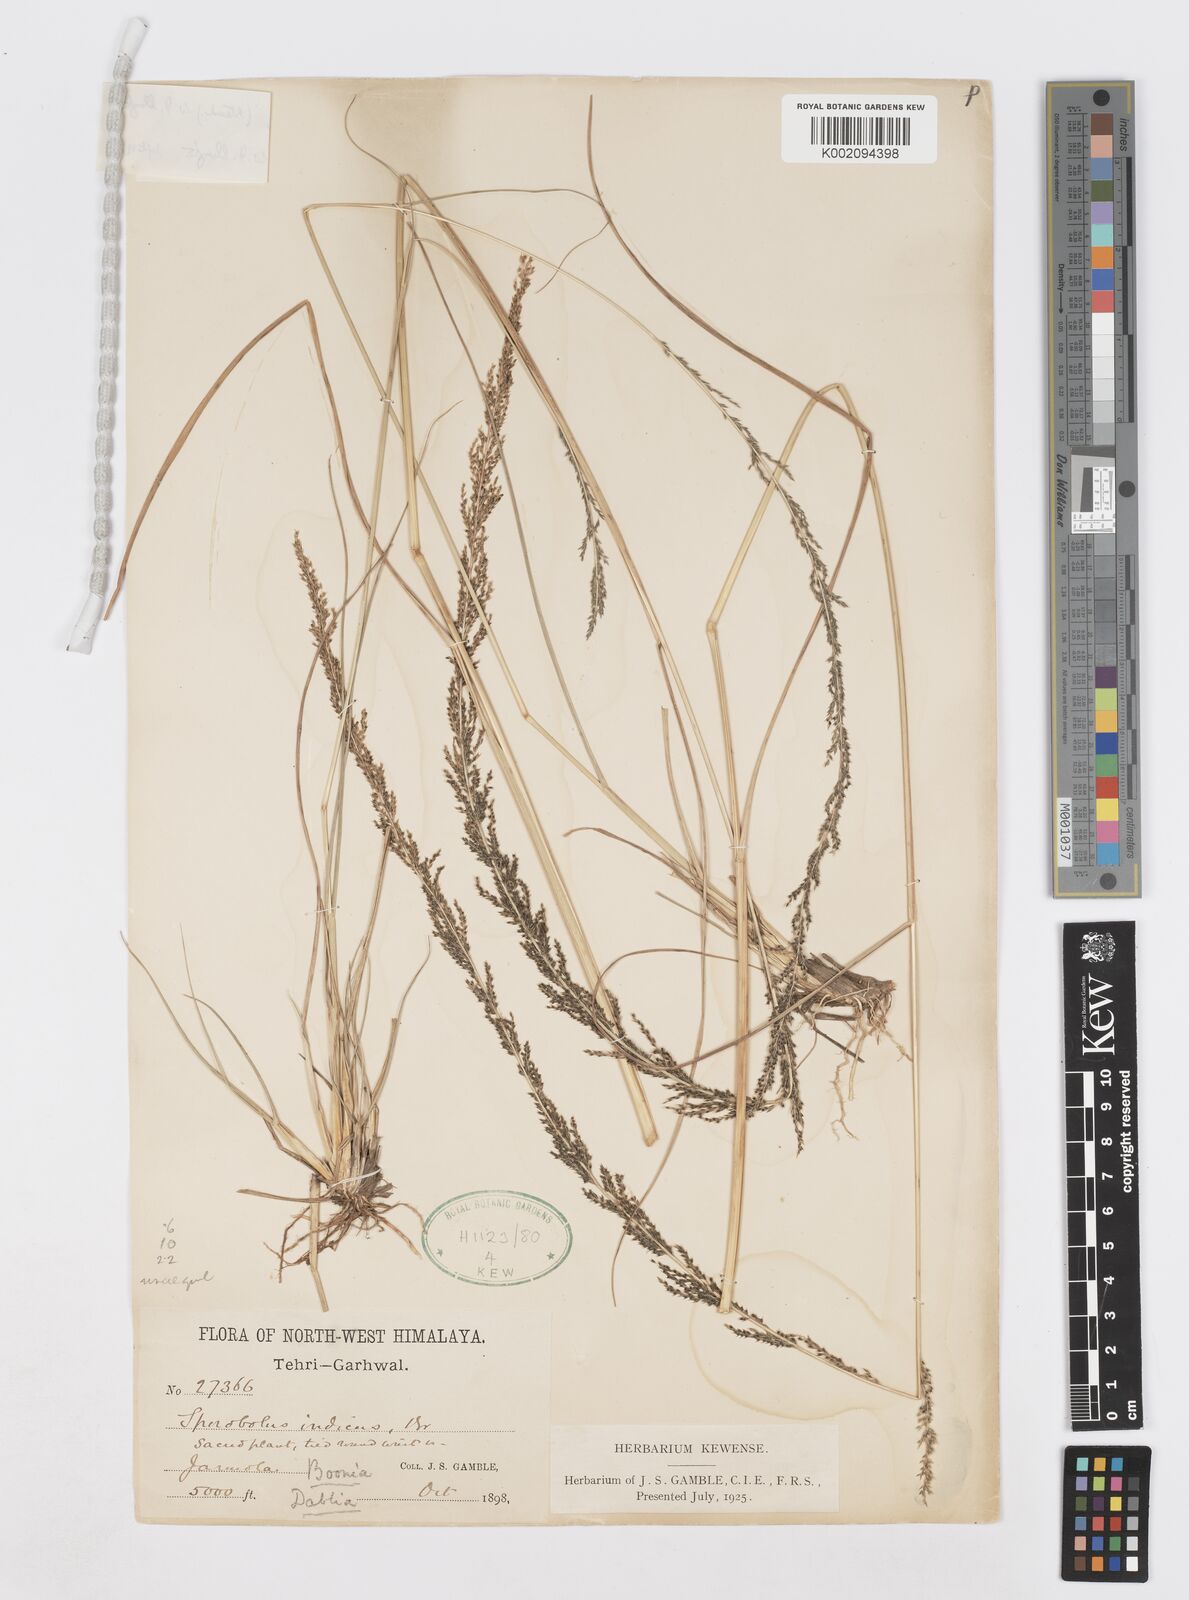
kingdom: Plantae
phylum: Tracheophyta
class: Liliopsida
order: Poales
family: Poaceae
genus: Sporobolus
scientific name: Sporobolus fertilis
